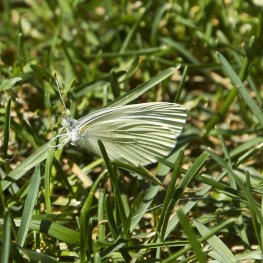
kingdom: Animalia
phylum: Arthropoda
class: Insecta
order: Lepidoptera
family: Pieridae
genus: Pieris
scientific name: Pieris oleracea
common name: Mustard White
